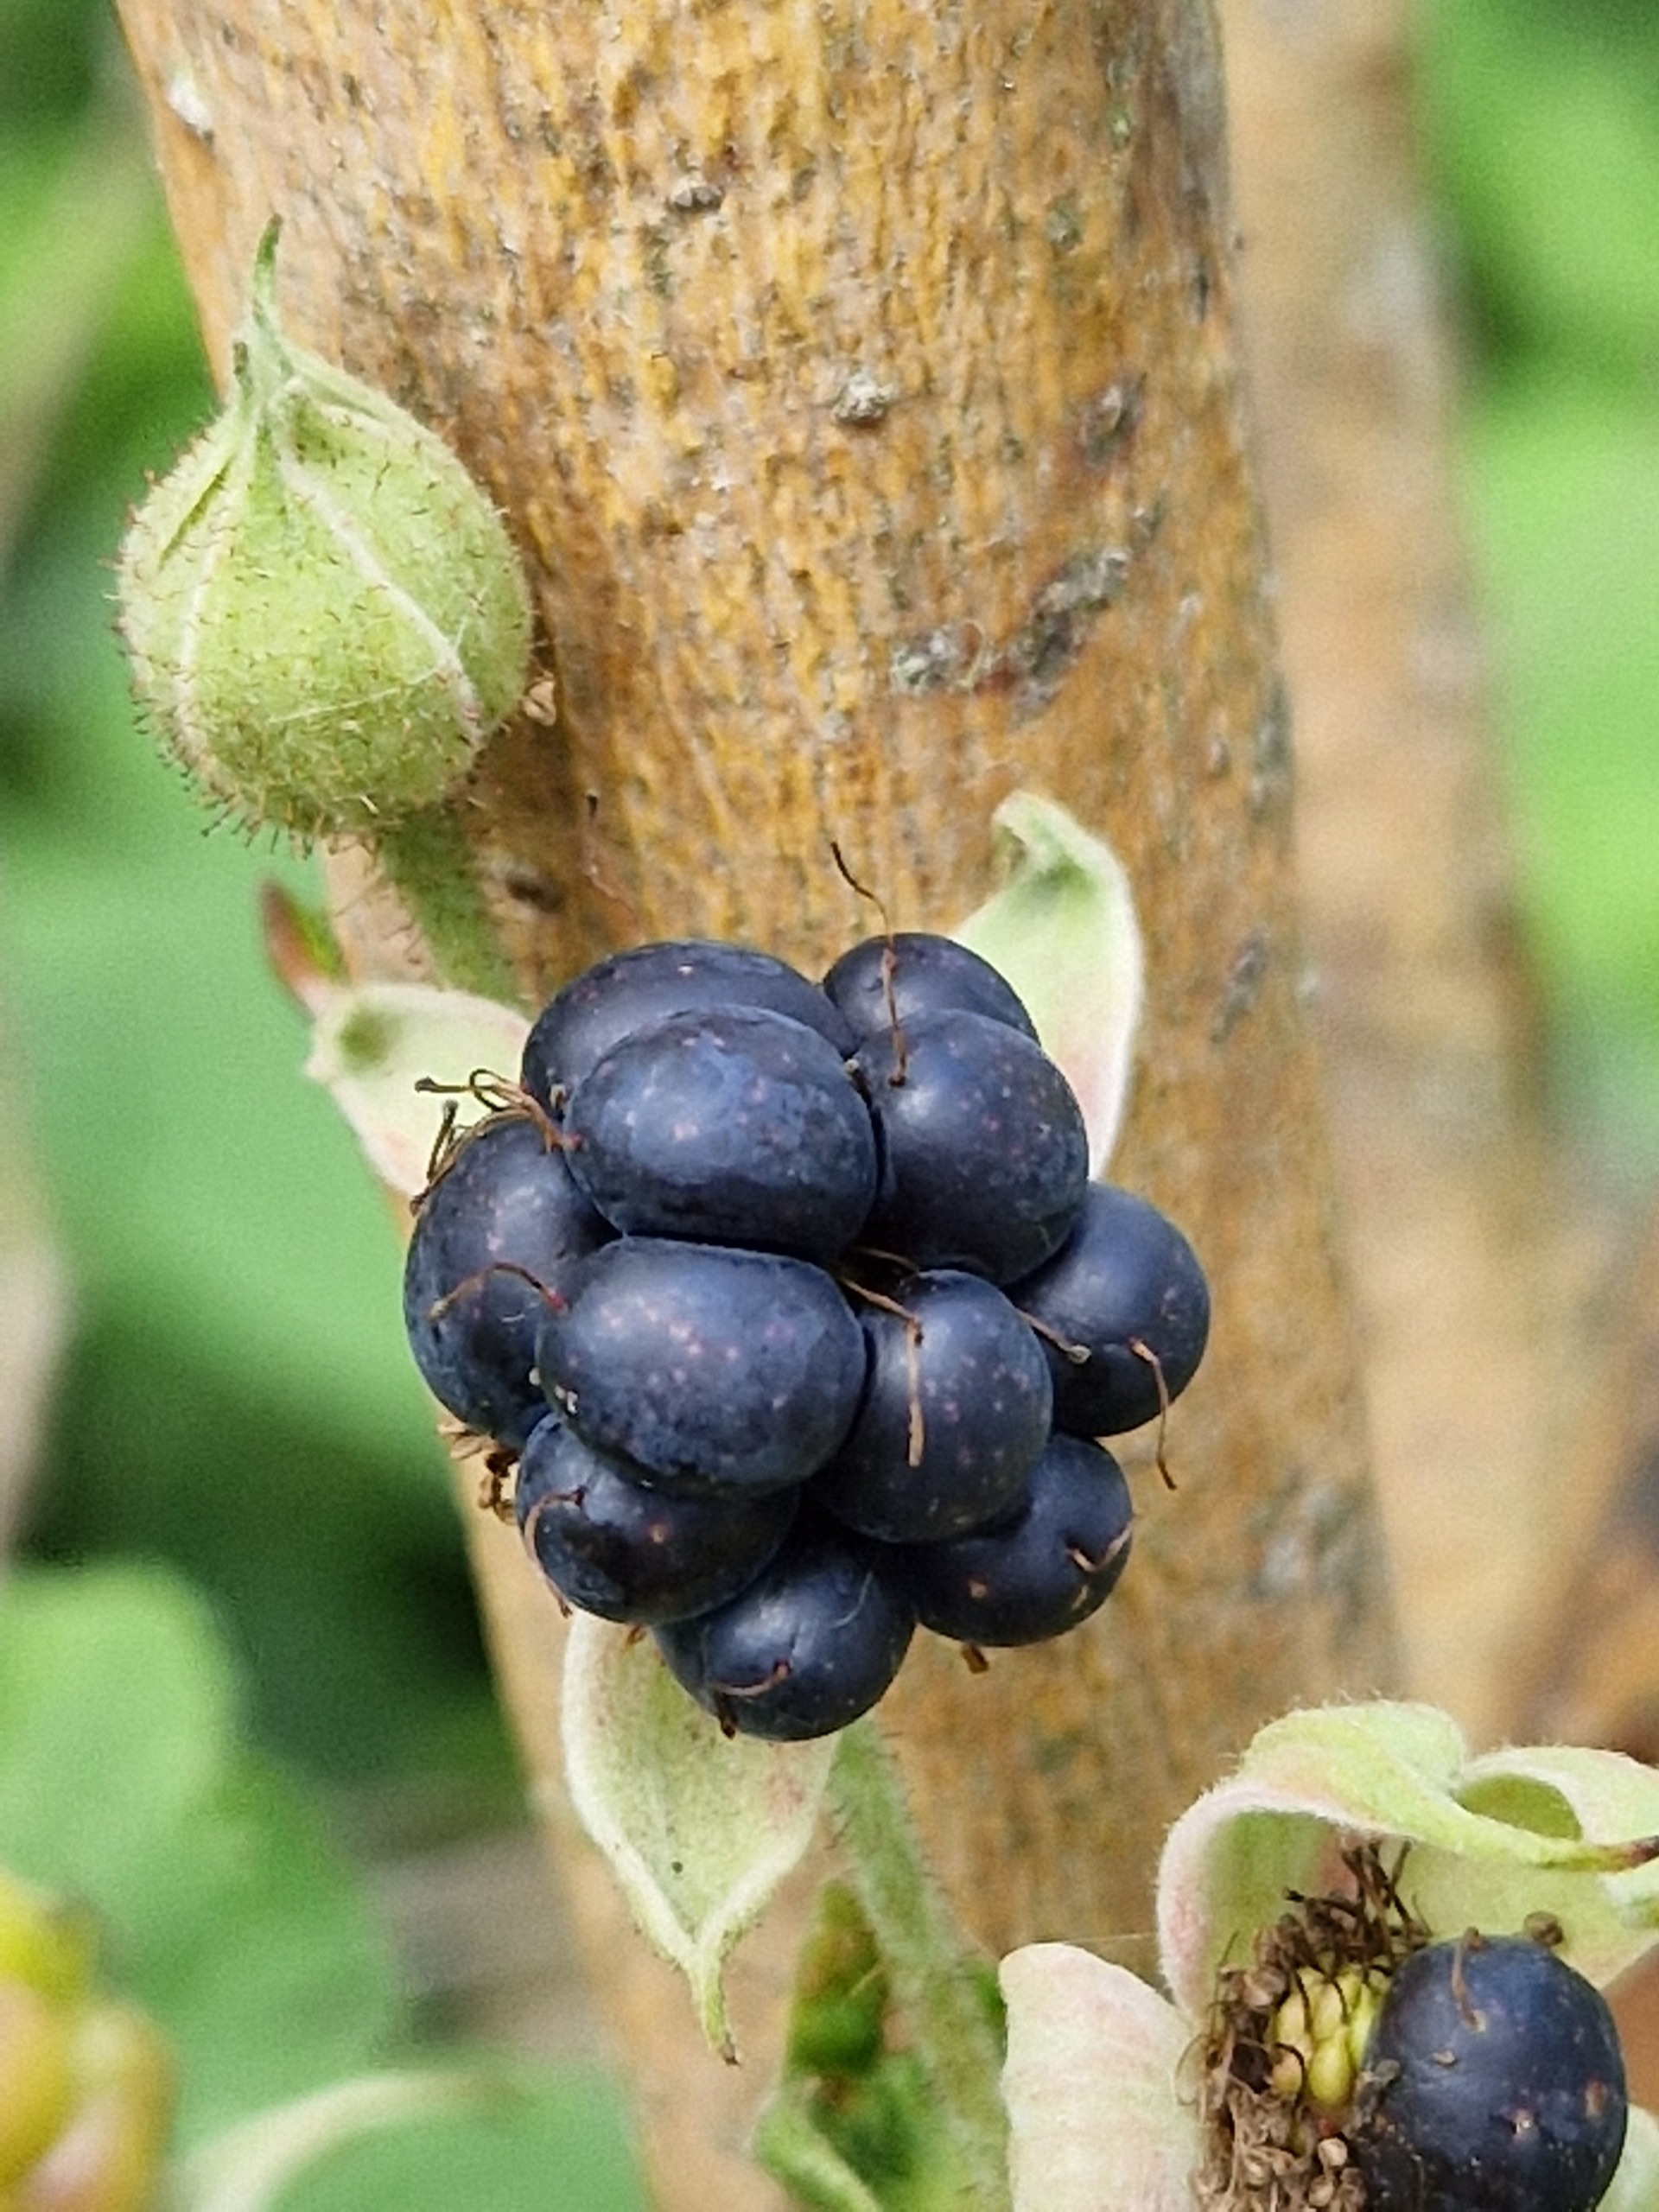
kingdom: Plantae
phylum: Tracheophyta
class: Magnoliopsida
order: Rosales
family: Rosaceae
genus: Rubus
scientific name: Rubus
